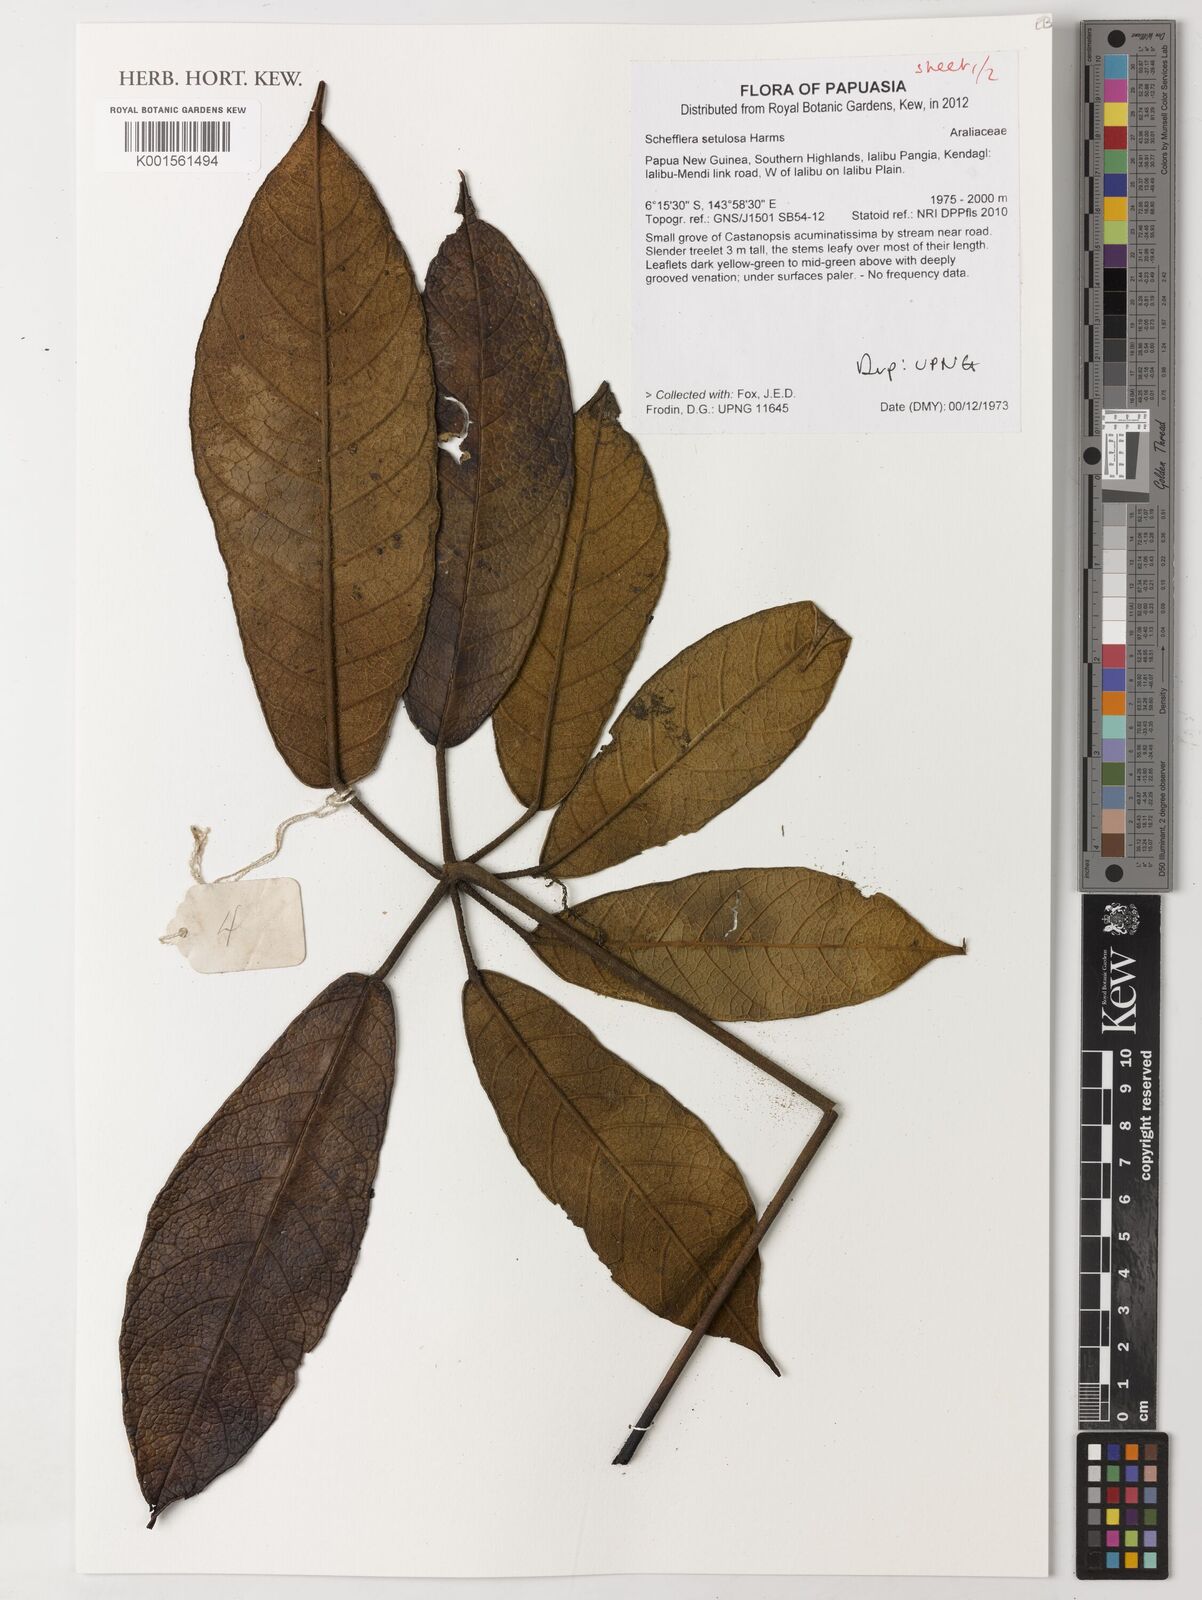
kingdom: Plantae
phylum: Tracheophyta
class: Magnoliopsida
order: Apiales
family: Araliaceae
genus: Heptapleurum
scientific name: Heptapleurum setulosum
